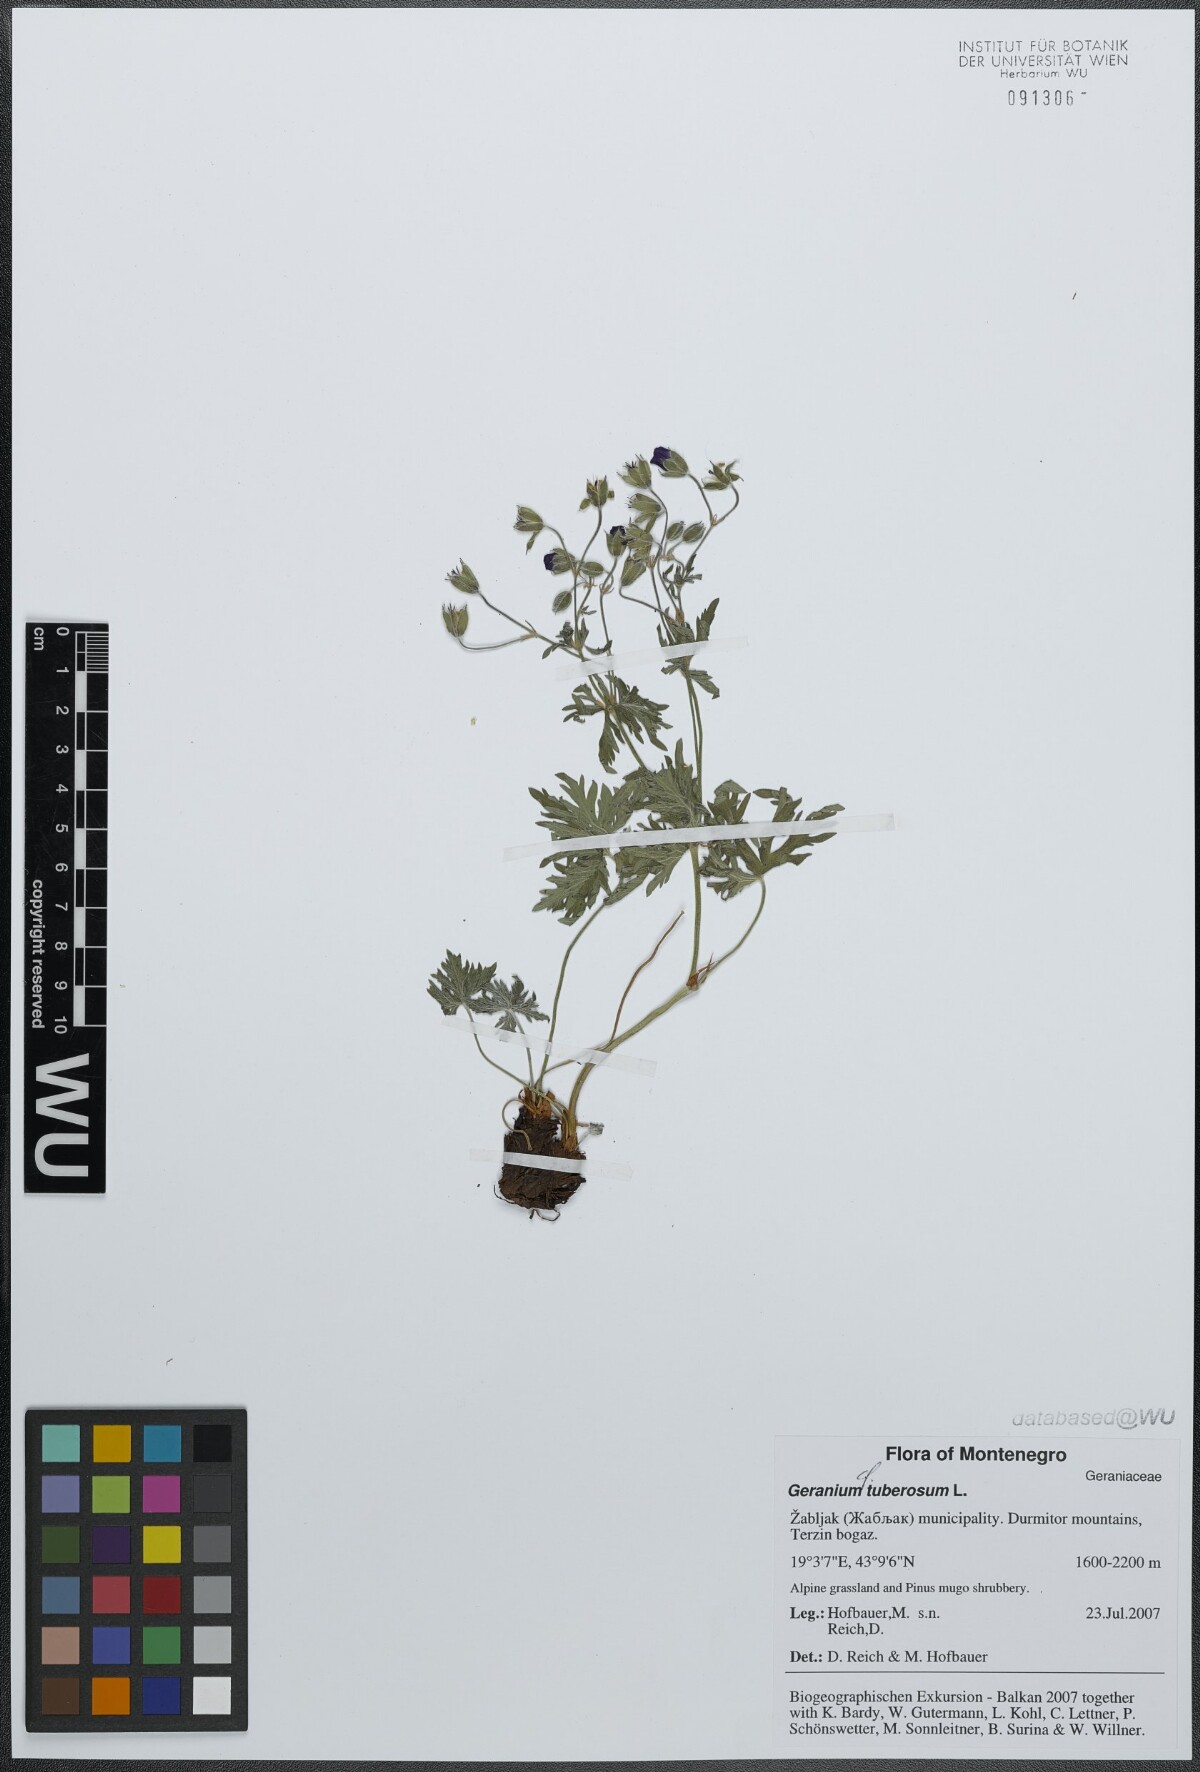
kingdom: Plantae
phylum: Tracheophyta
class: Magnoliopsida
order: Geraniales
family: Geraniaceae
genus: Geranium
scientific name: Geranium tuberosum
